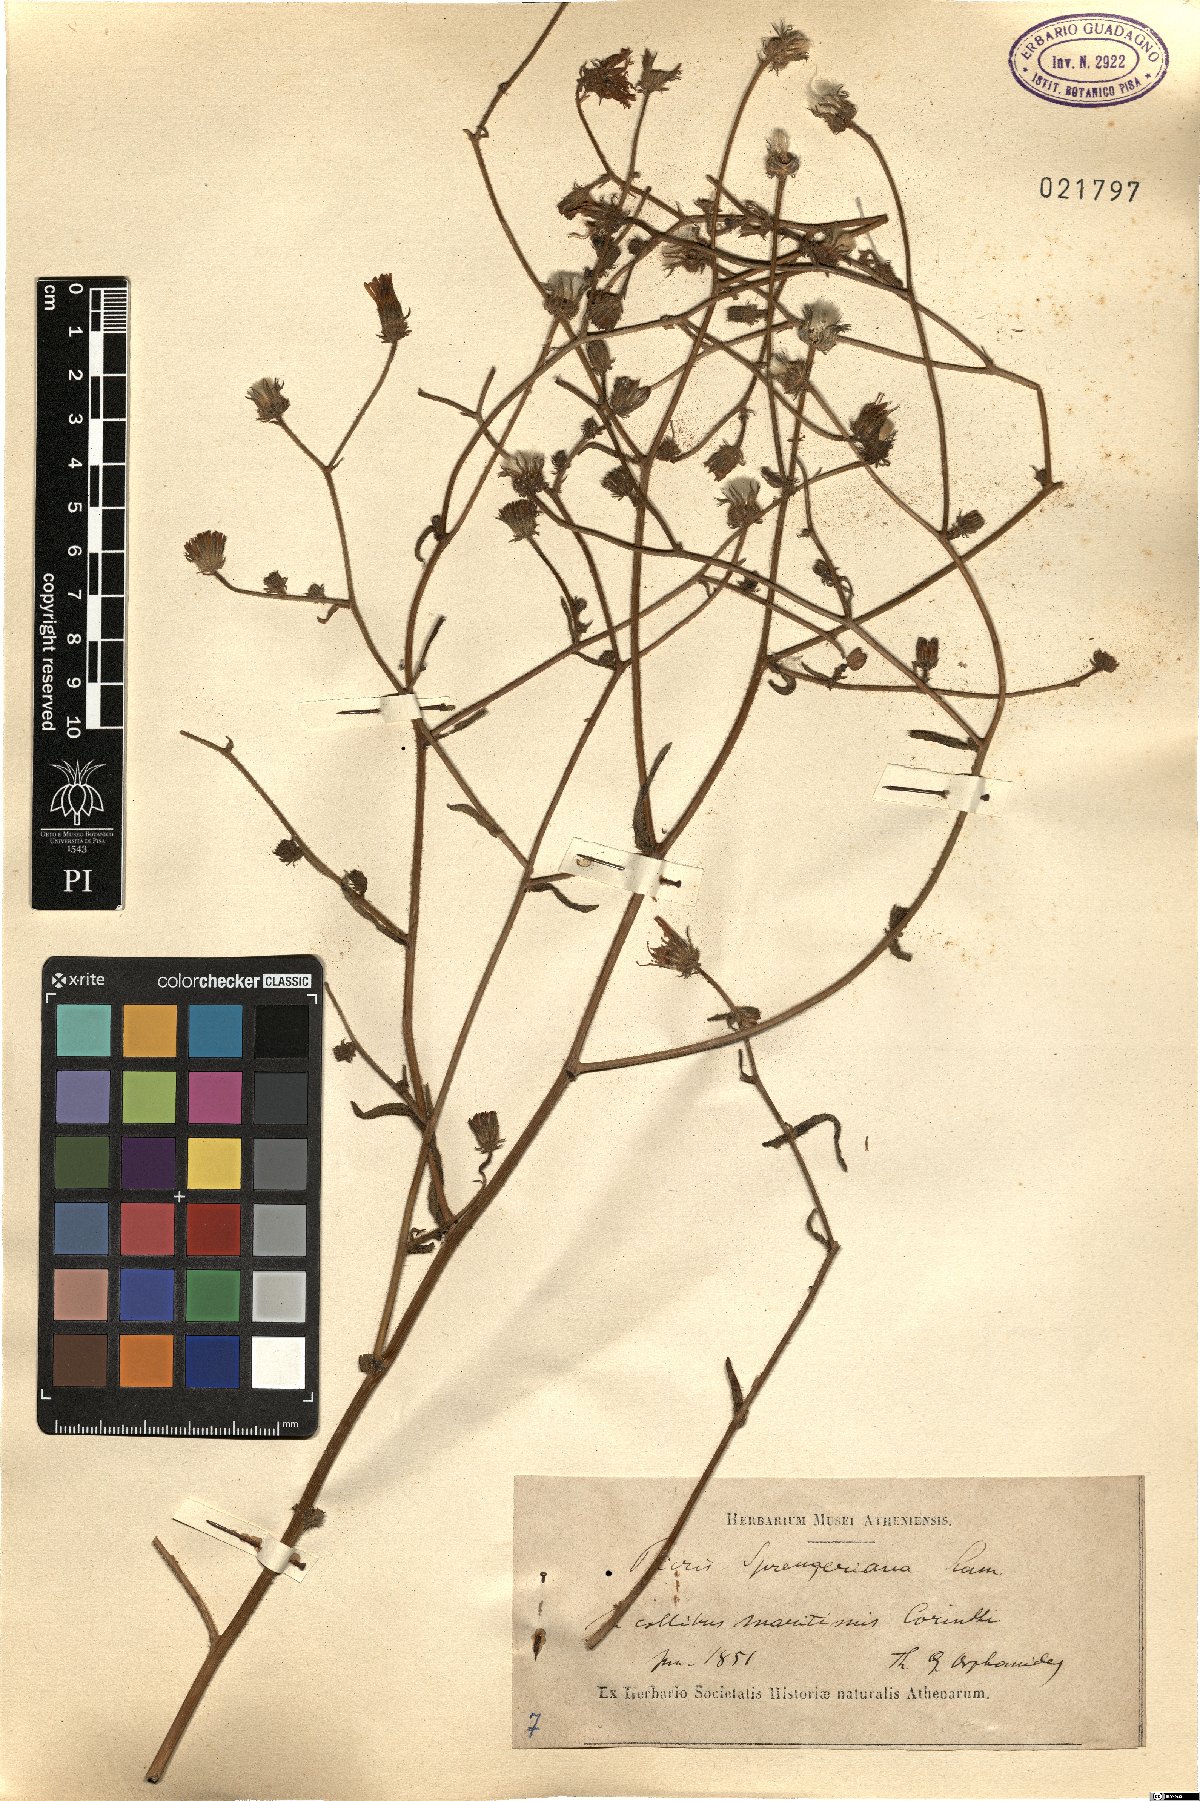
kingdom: Plantae
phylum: Tracheophyta
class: Magnoliopsida
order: Asterales
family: Asteraceae
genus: Picris
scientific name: Picris rhagadioloides
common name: Oxtongue
